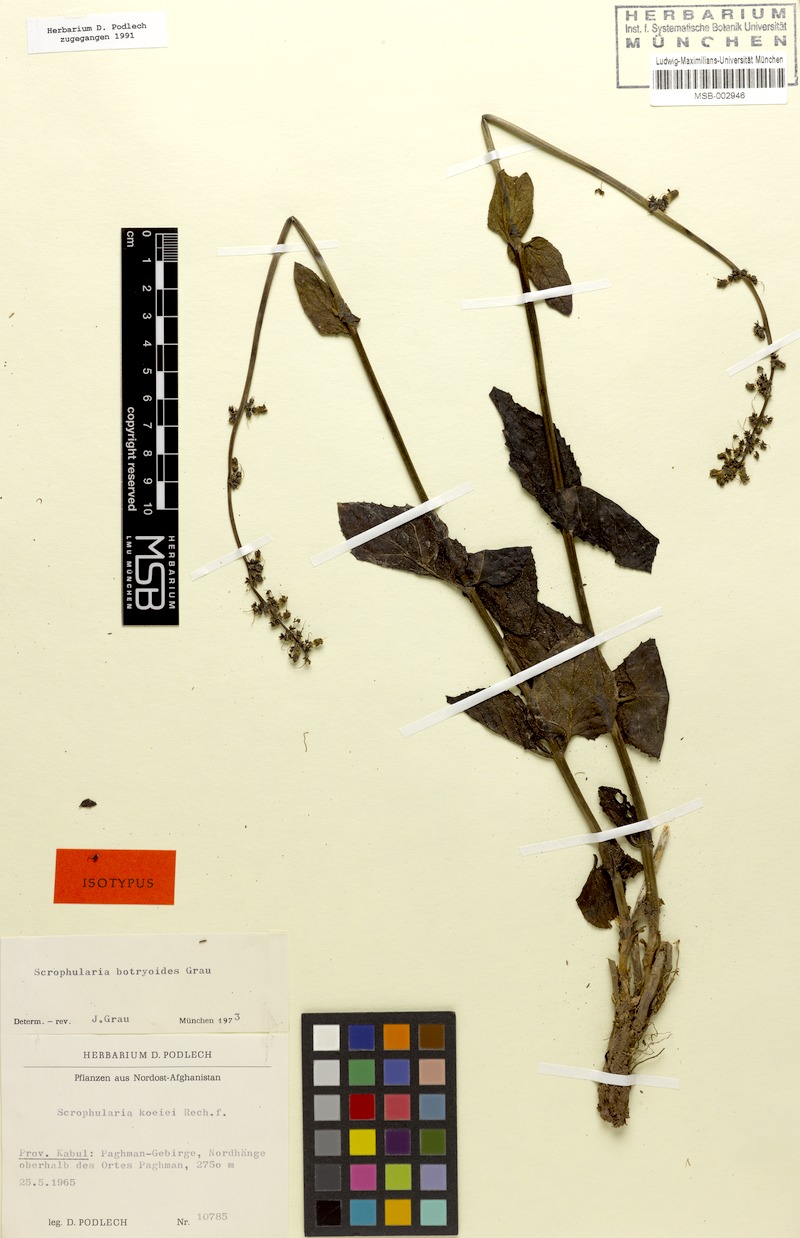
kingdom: Plantae
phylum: Tracheophyta
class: Magnoliopsida
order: Lamiales
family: Scrophulariaceae
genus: Scrophularia
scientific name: Scrophularia botryoides
